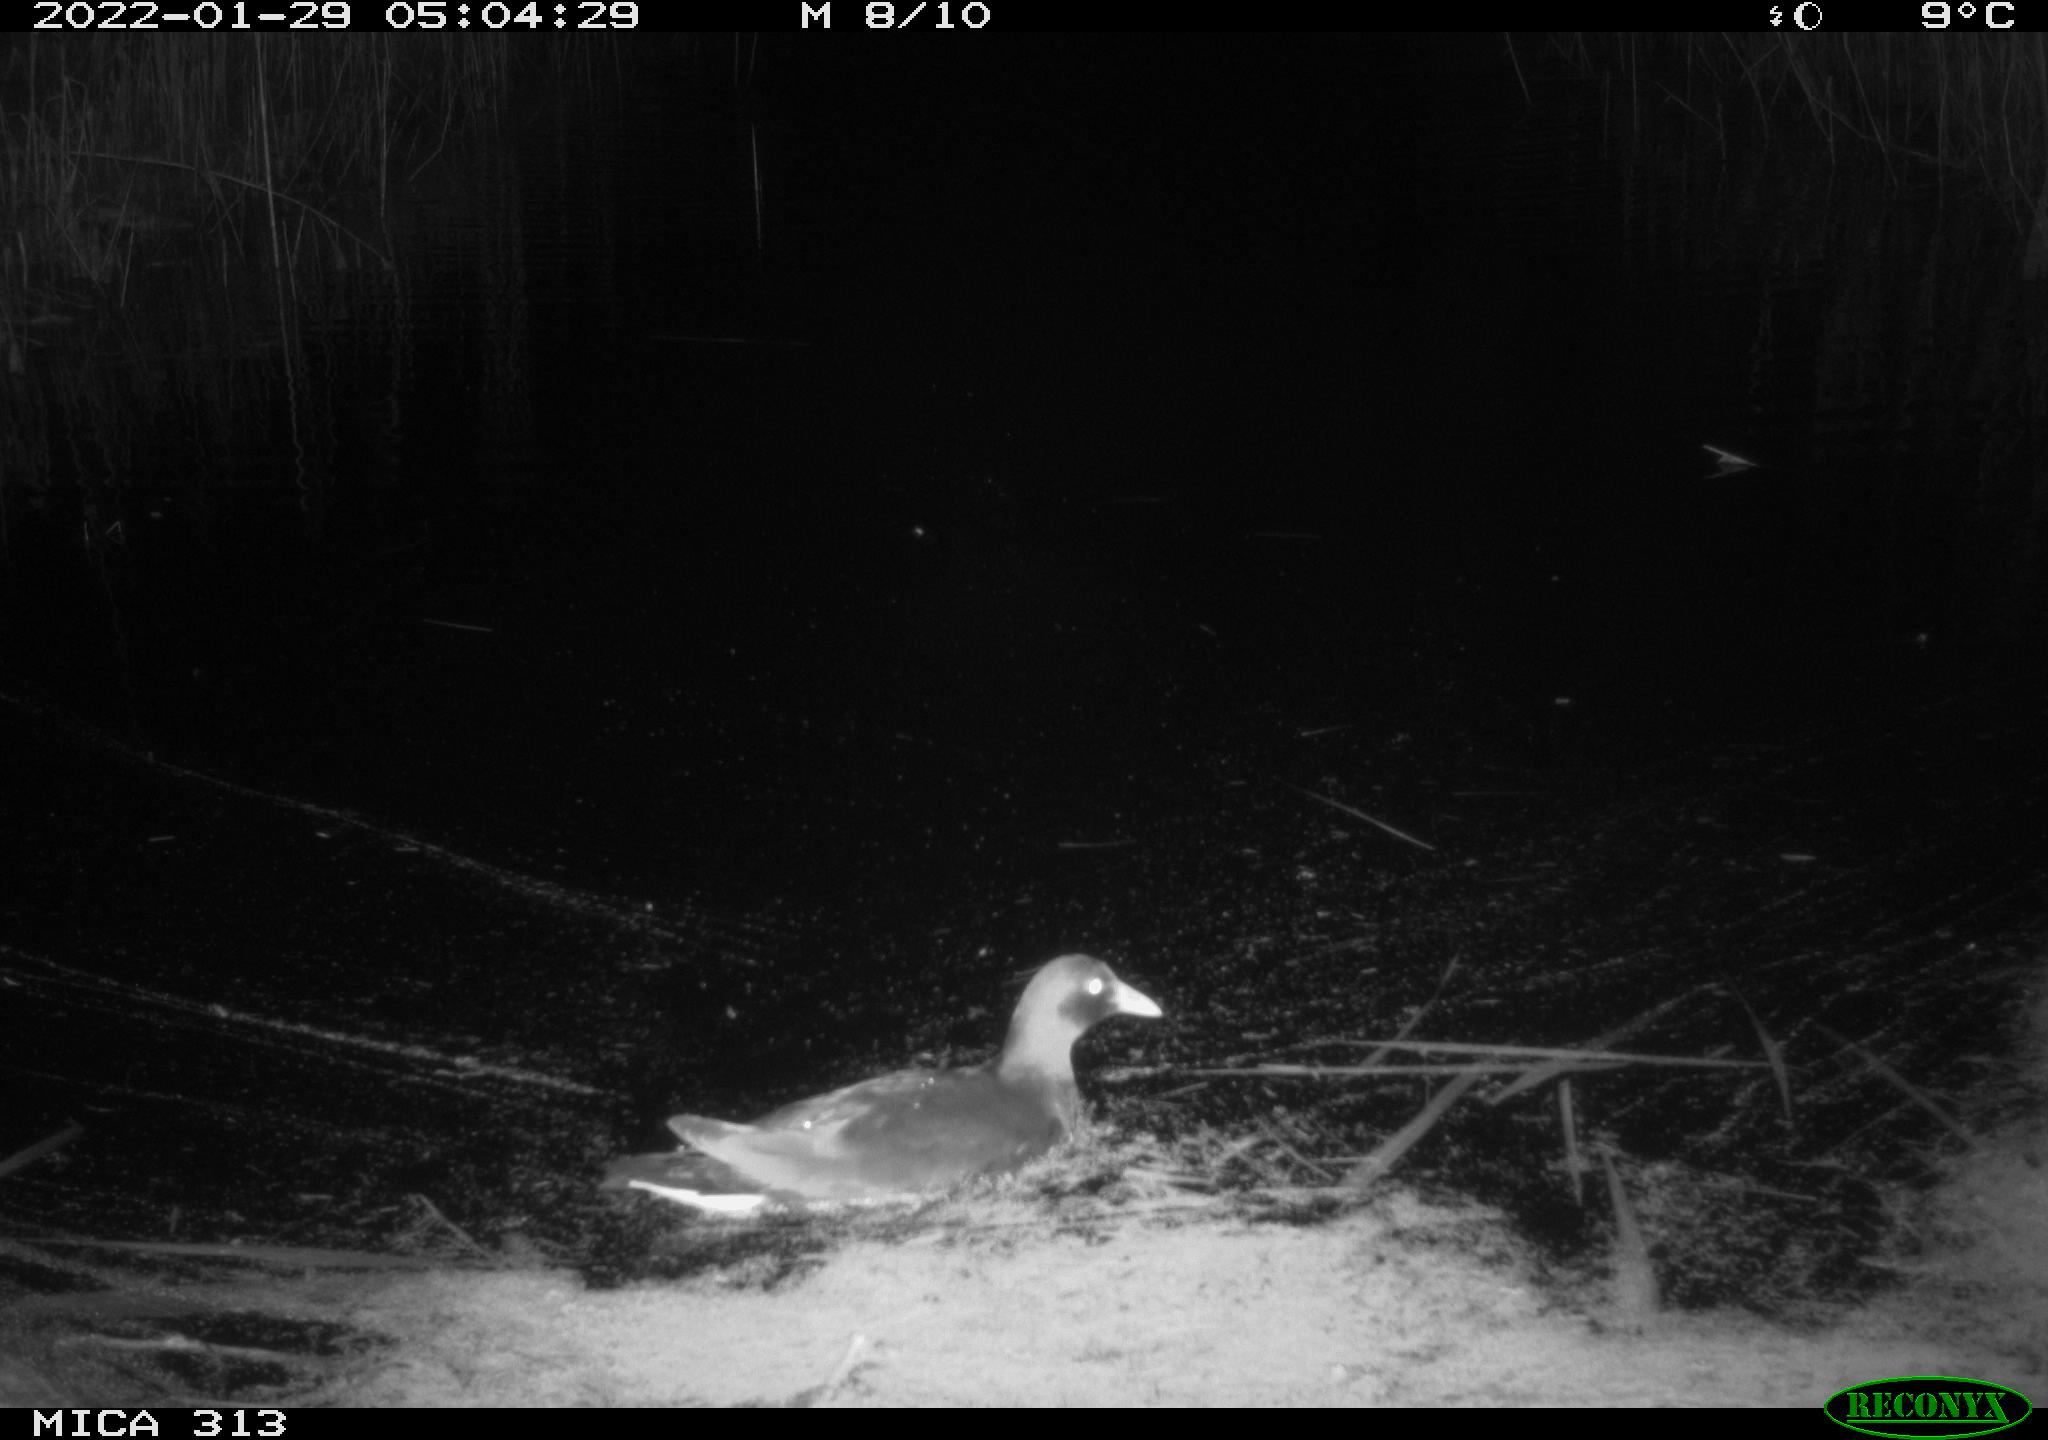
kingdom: Animalia
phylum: Chordata
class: Aves
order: Gruiformes
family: Rallidae
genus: Fulica
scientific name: Fulica atra
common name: Eurasian coot
